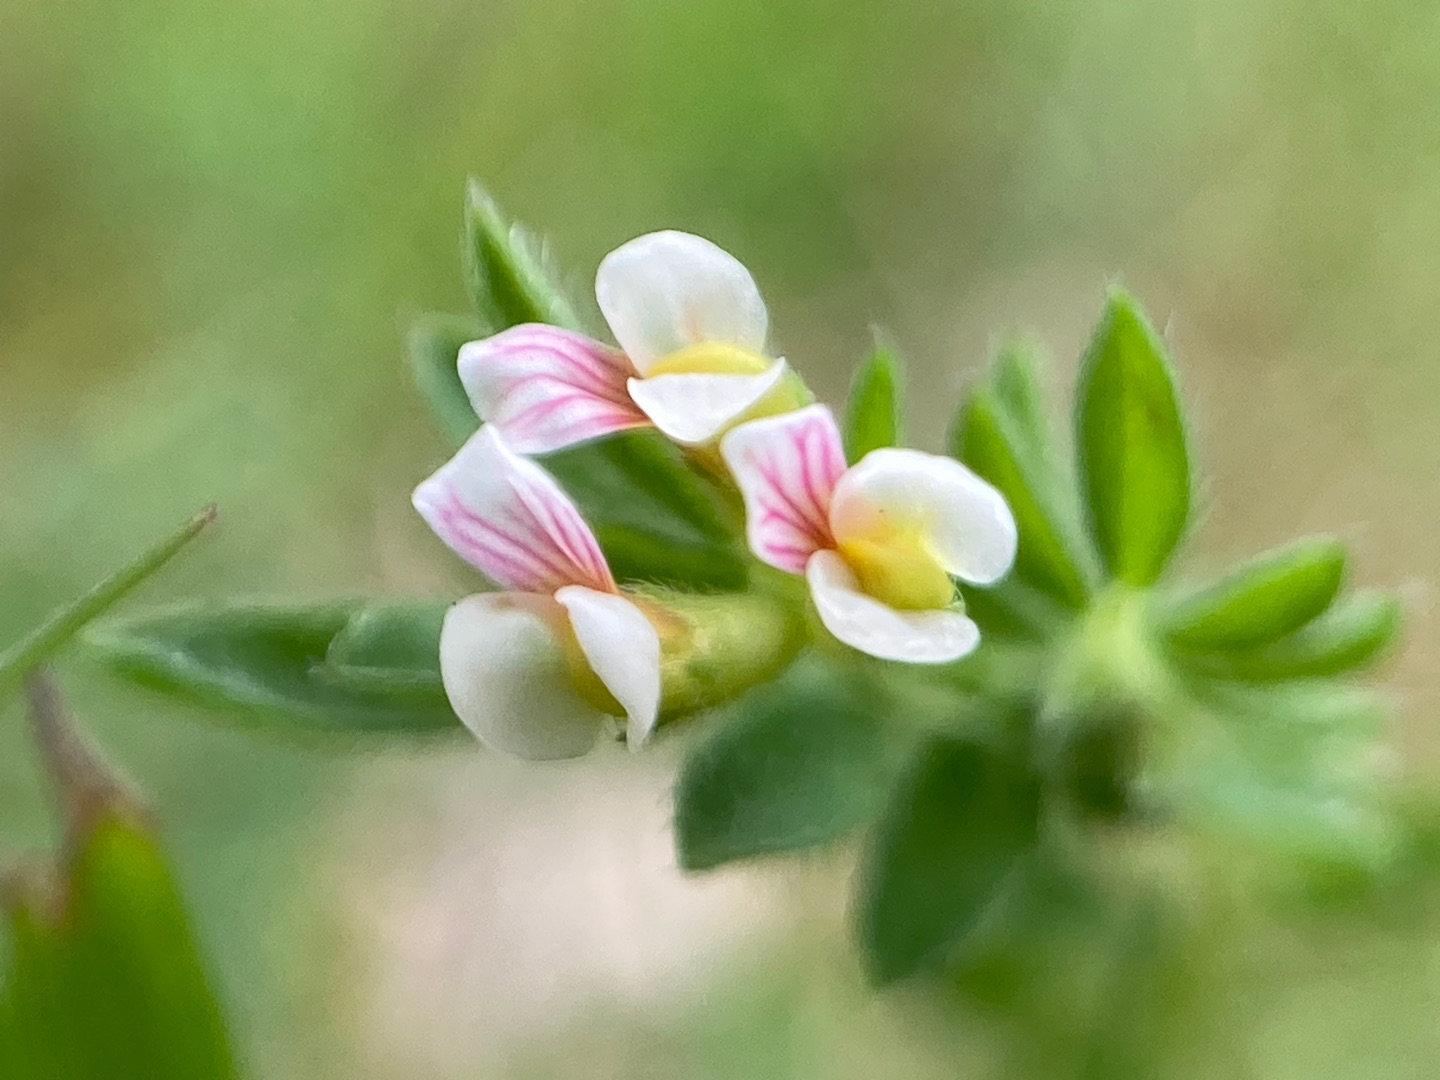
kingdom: Plantae
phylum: Tracheophyta
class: Magnoliopsida
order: Fabales
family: Fabaceae
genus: Ornithopus
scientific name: Ornithopus perpusillus
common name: Liden fugleklo
